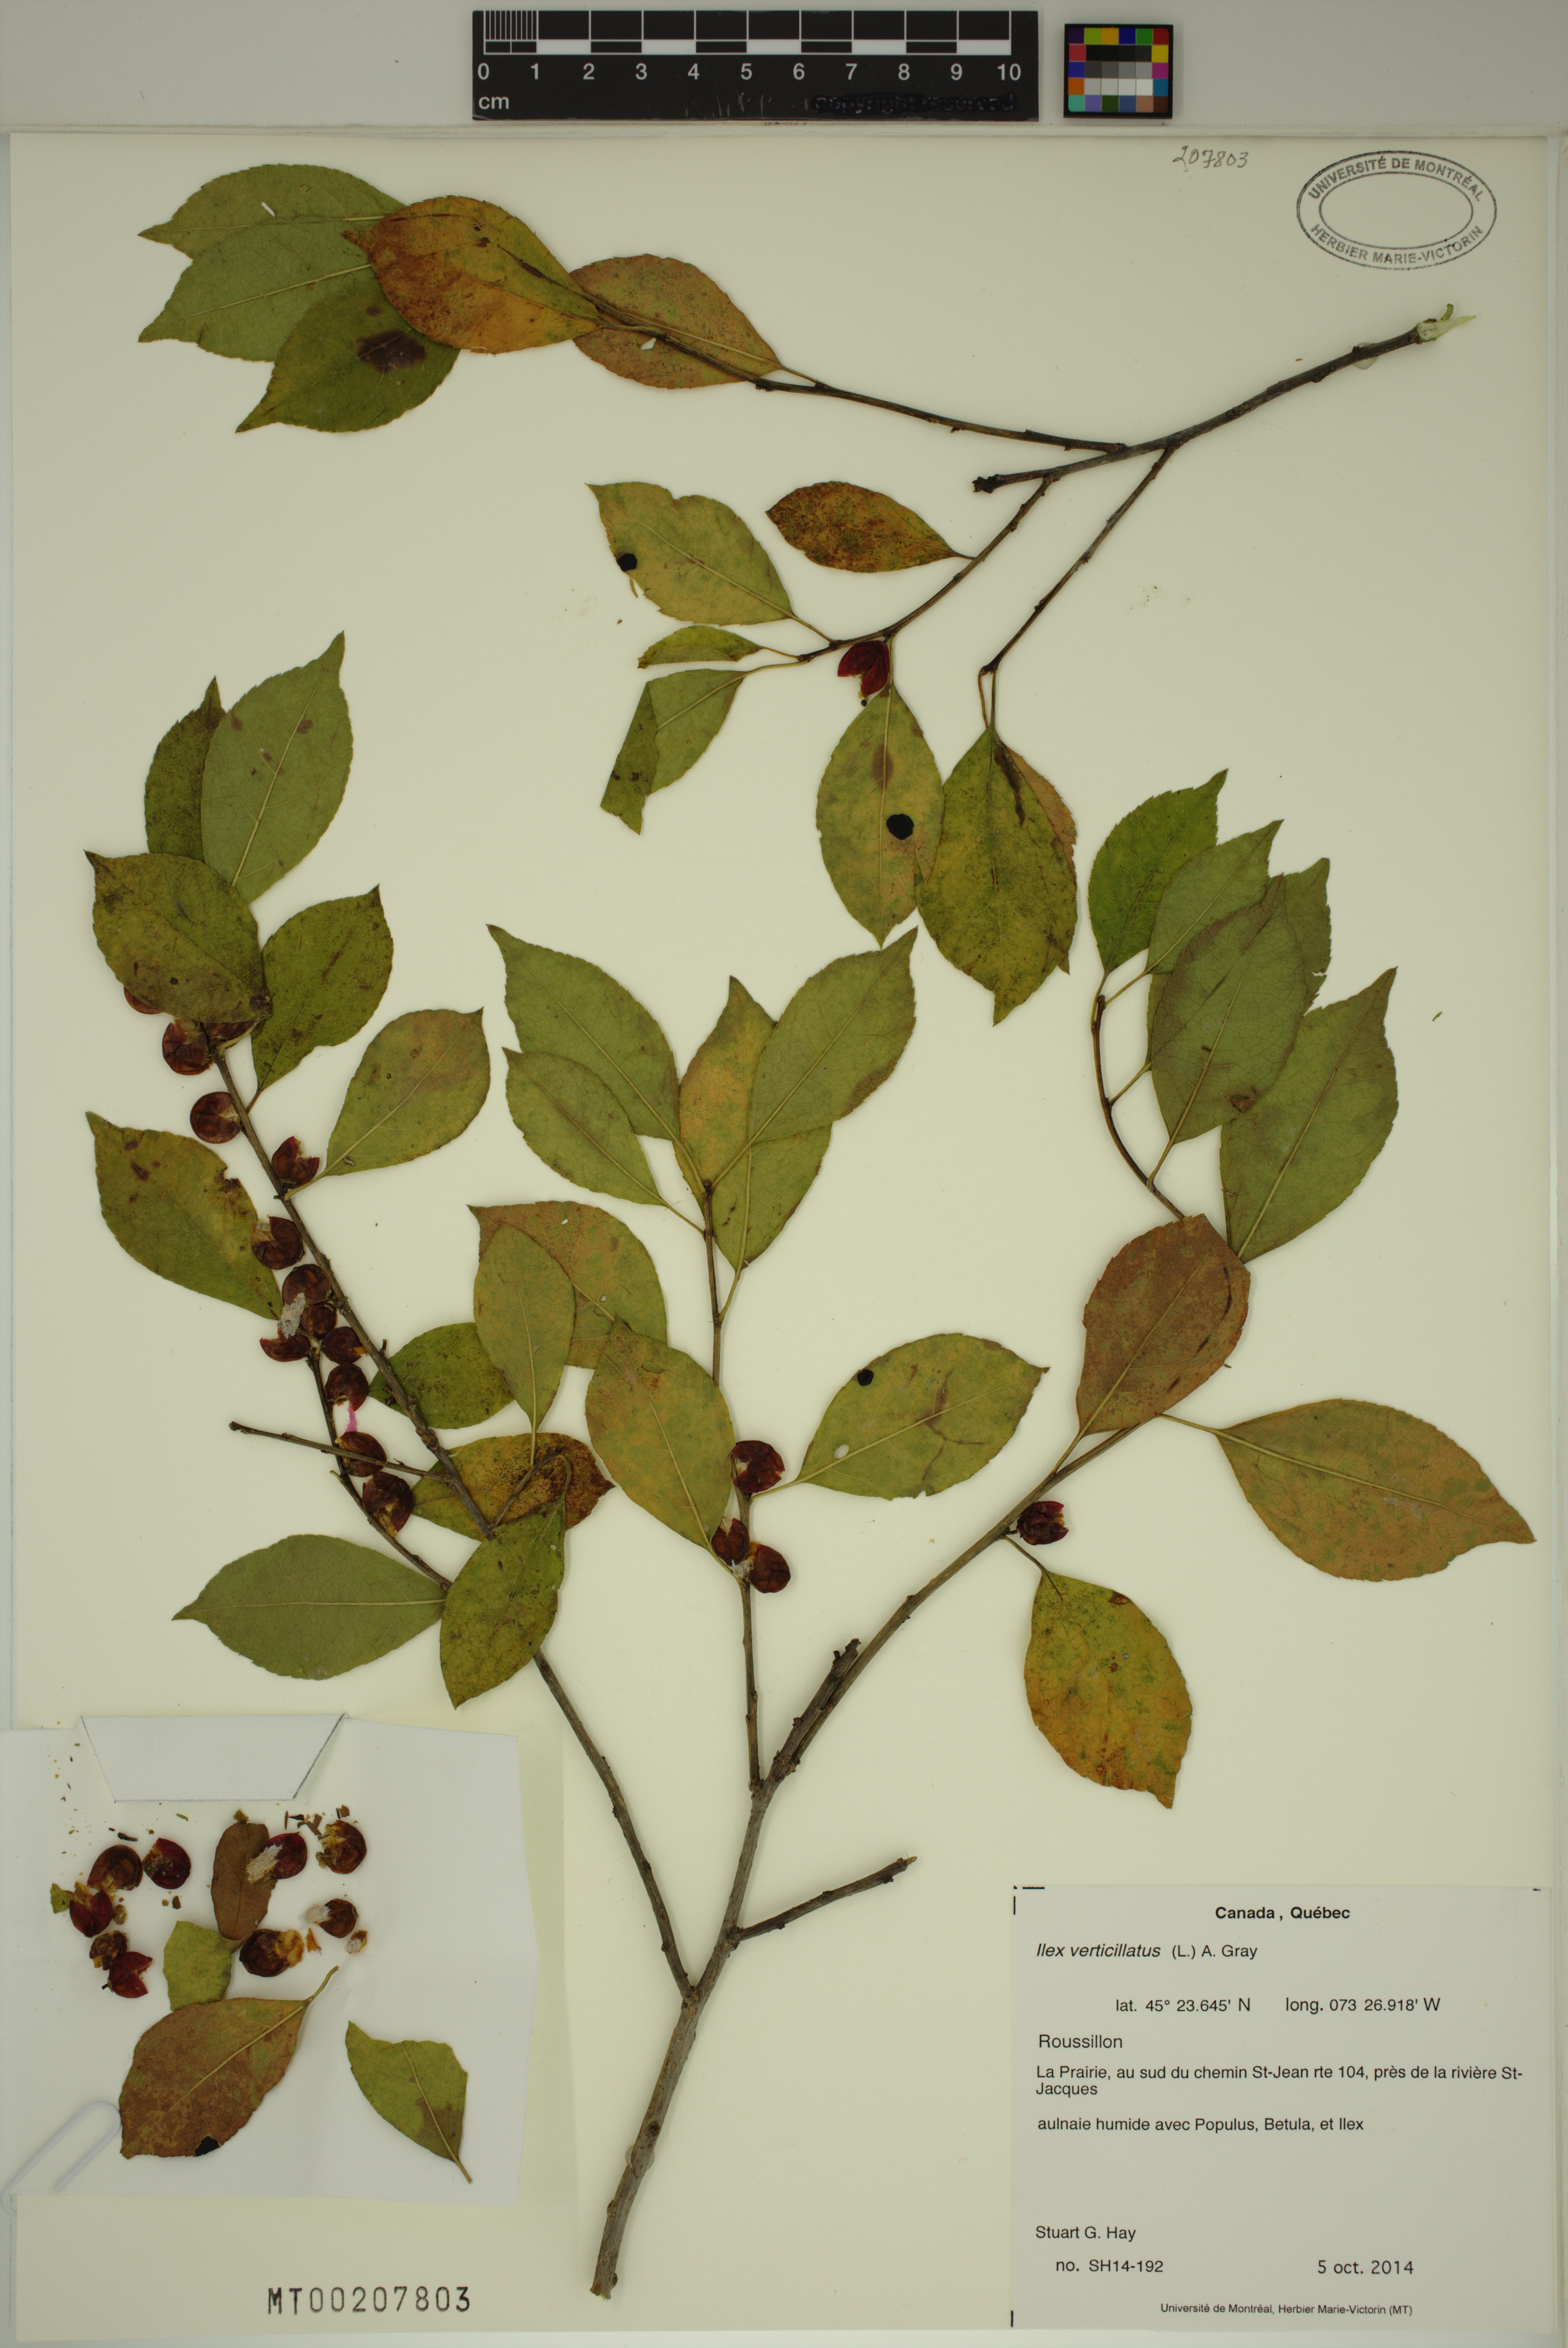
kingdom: Plantae
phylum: Tracheophyta
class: Magnoliopsida
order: Aquifoliales
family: Aquifoliaceae
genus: Ilex
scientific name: Ilex verticillata
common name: Virginia winterberry
